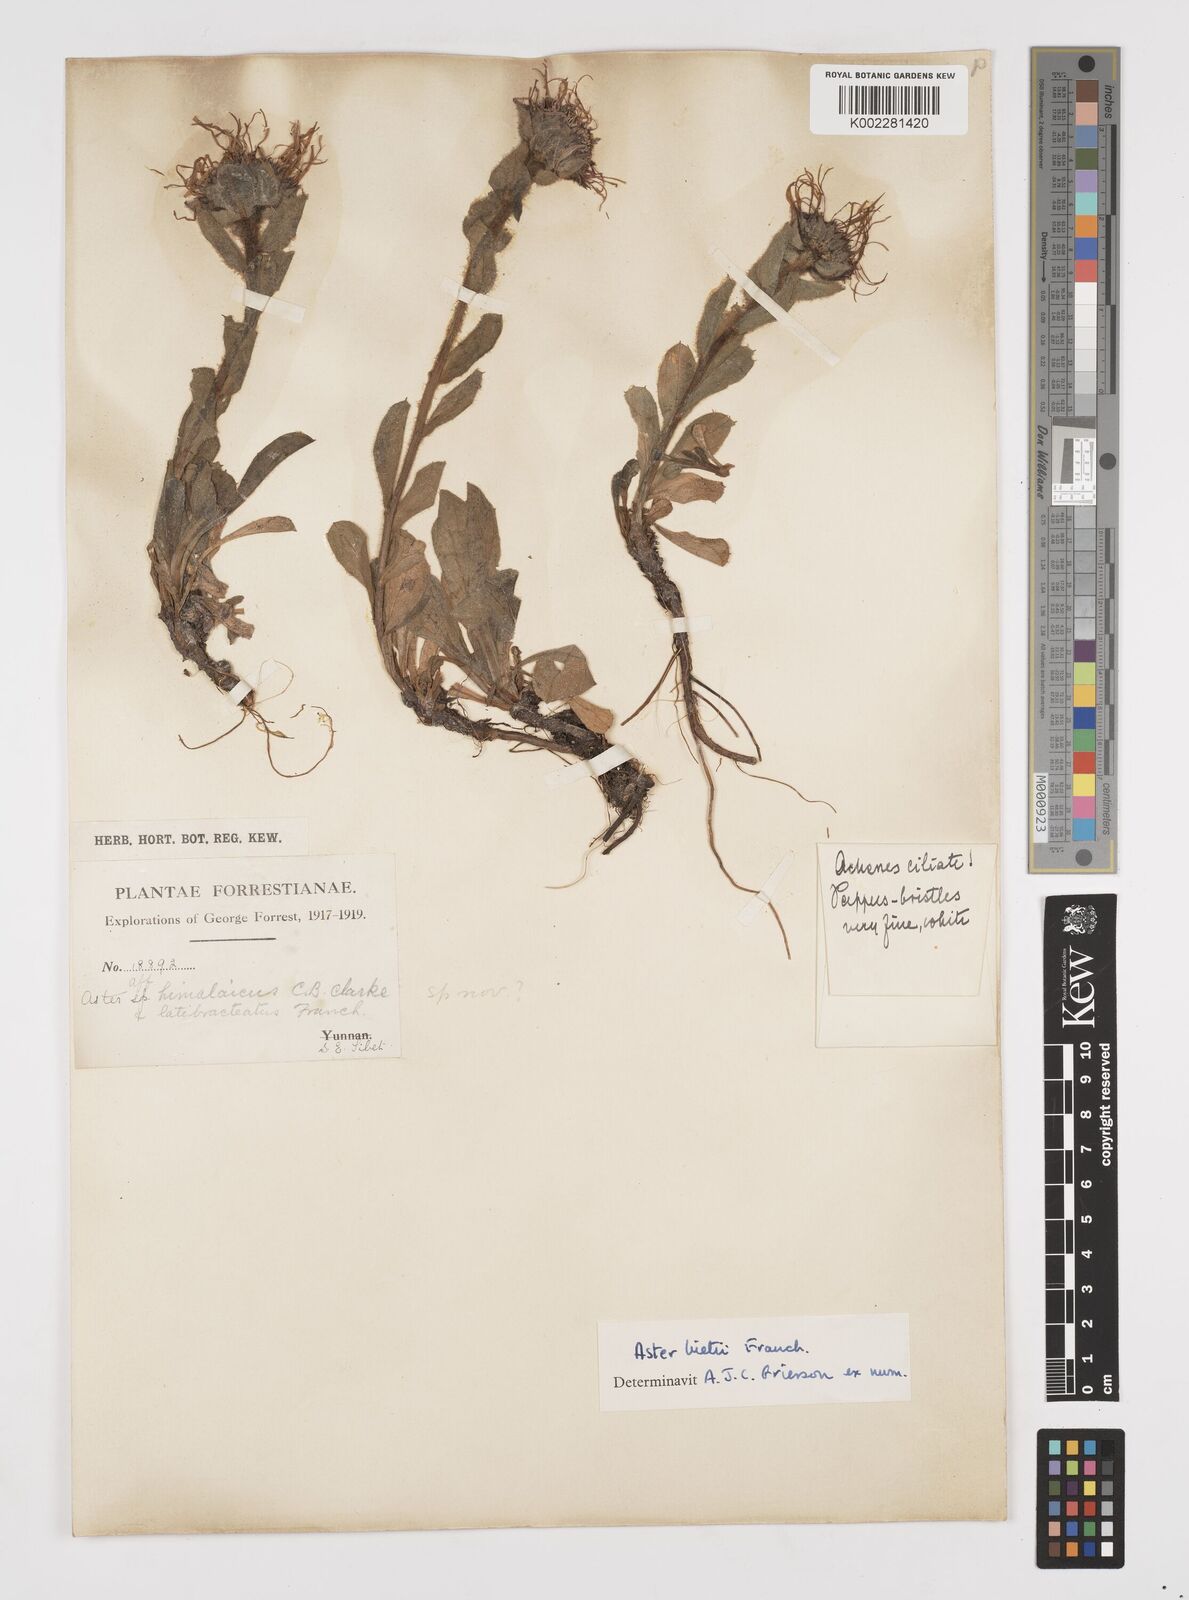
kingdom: Plantae
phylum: Tracheophyta
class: Magnoliopsida
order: Asterales
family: Asteraceae
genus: Tibetiodes
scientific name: Tibetiodes bietii
